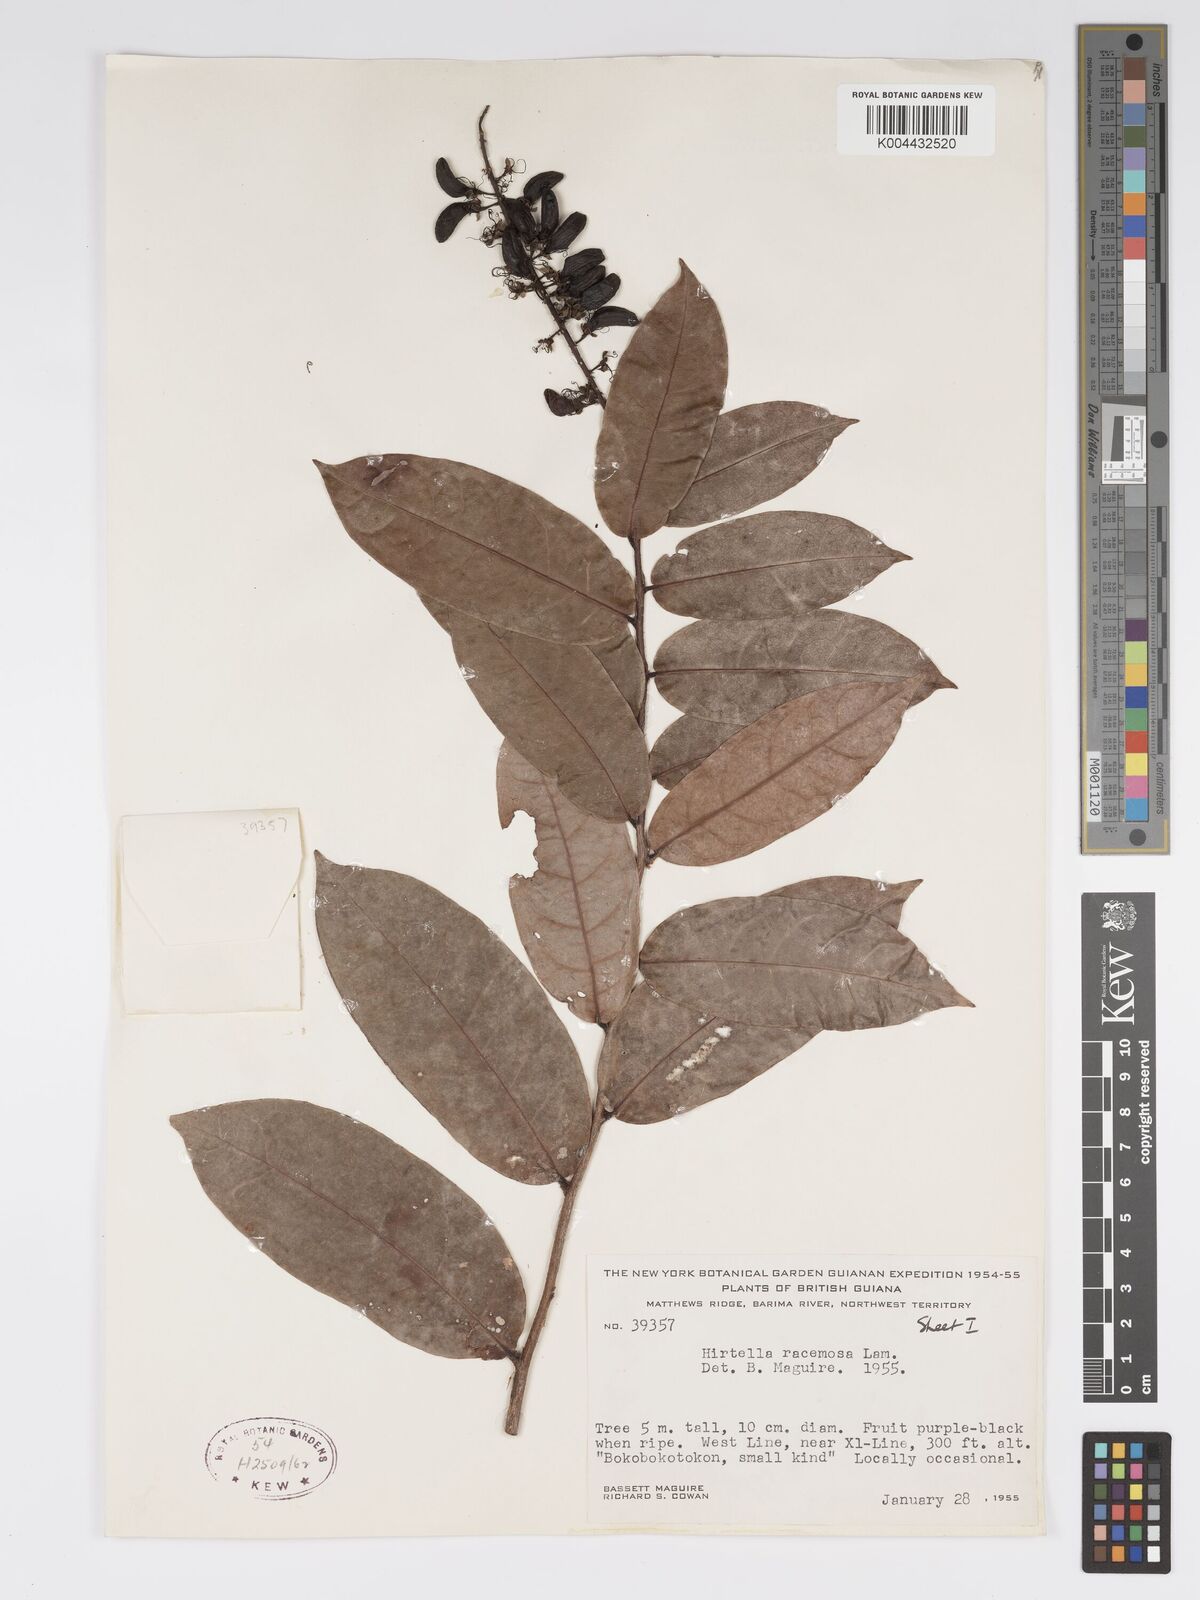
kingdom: Plantae
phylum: Tracheophyta
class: Magnoliopsida
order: Malpighiales
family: Chrysobalanaceae
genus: Hirtella
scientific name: Hirtella
